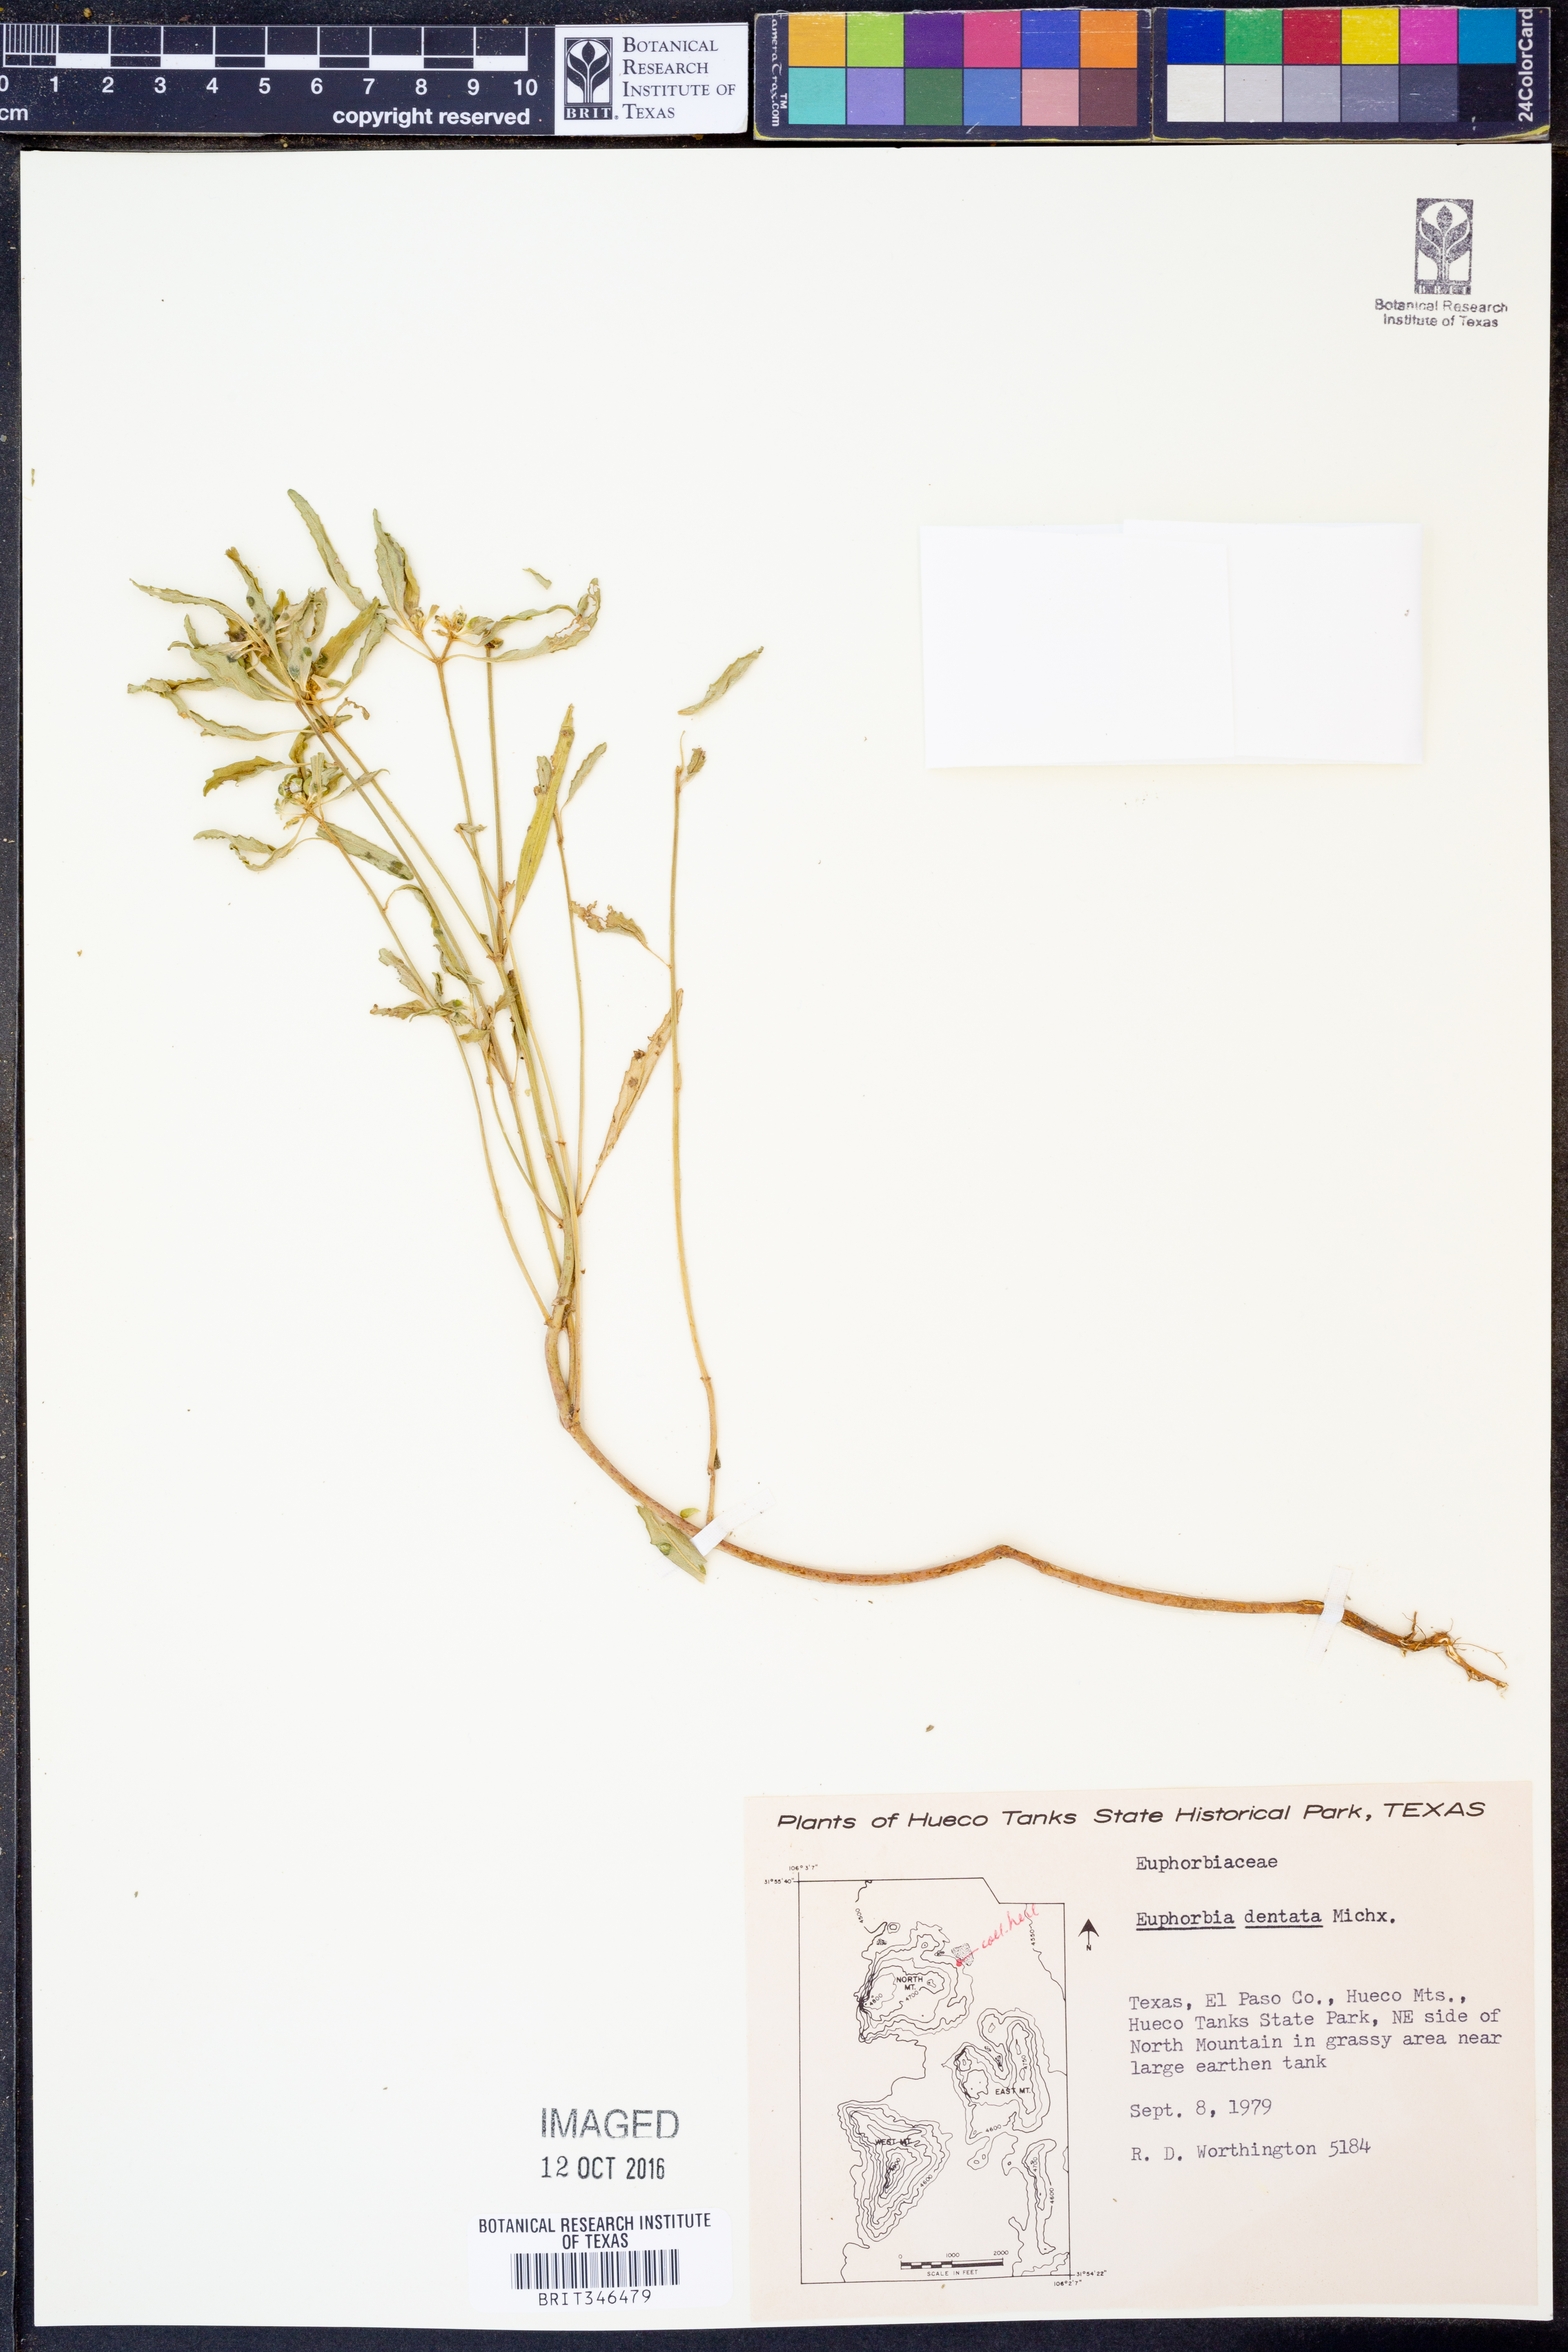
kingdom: Plantae
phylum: Tracheophyta
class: Magnoliopsida
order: Malpighiales
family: Euphorbiaceae
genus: Euphorbia
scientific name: Euphorbia dentata
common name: Dentate spurge
